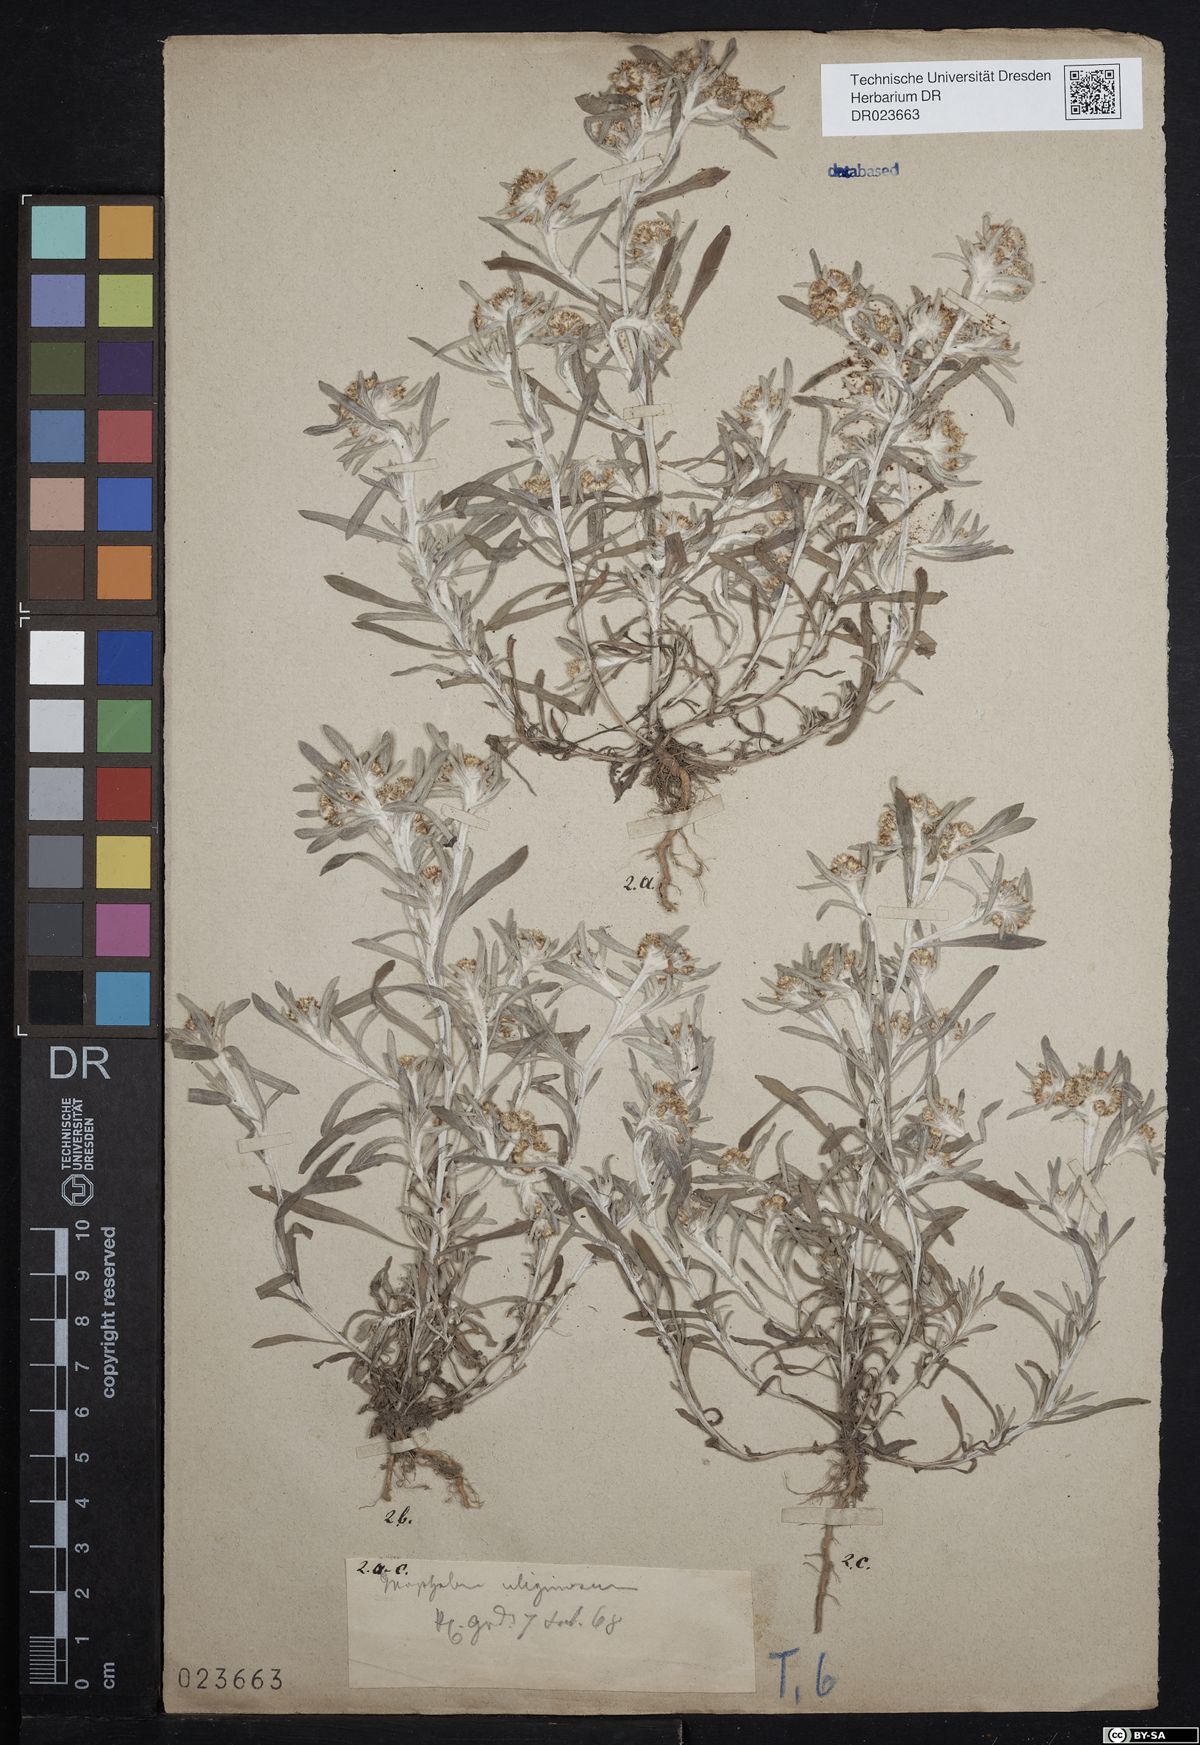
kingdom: Plantae
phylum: Tracheophyta
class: Magnoliopsida
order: Asterales
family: Asteraceae
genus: Gnaphalium
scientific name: Gnaphalium uliginosum
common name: Marsh cudweed
